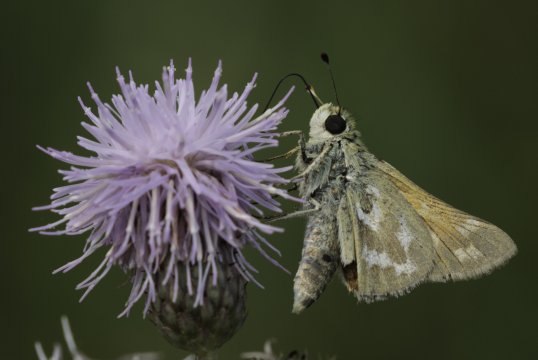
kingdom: Animalia
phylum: Arthropoda
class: Insecta
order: Lepidoptera
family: Hesperiidae
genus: Hesperia
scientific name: Hesperia
